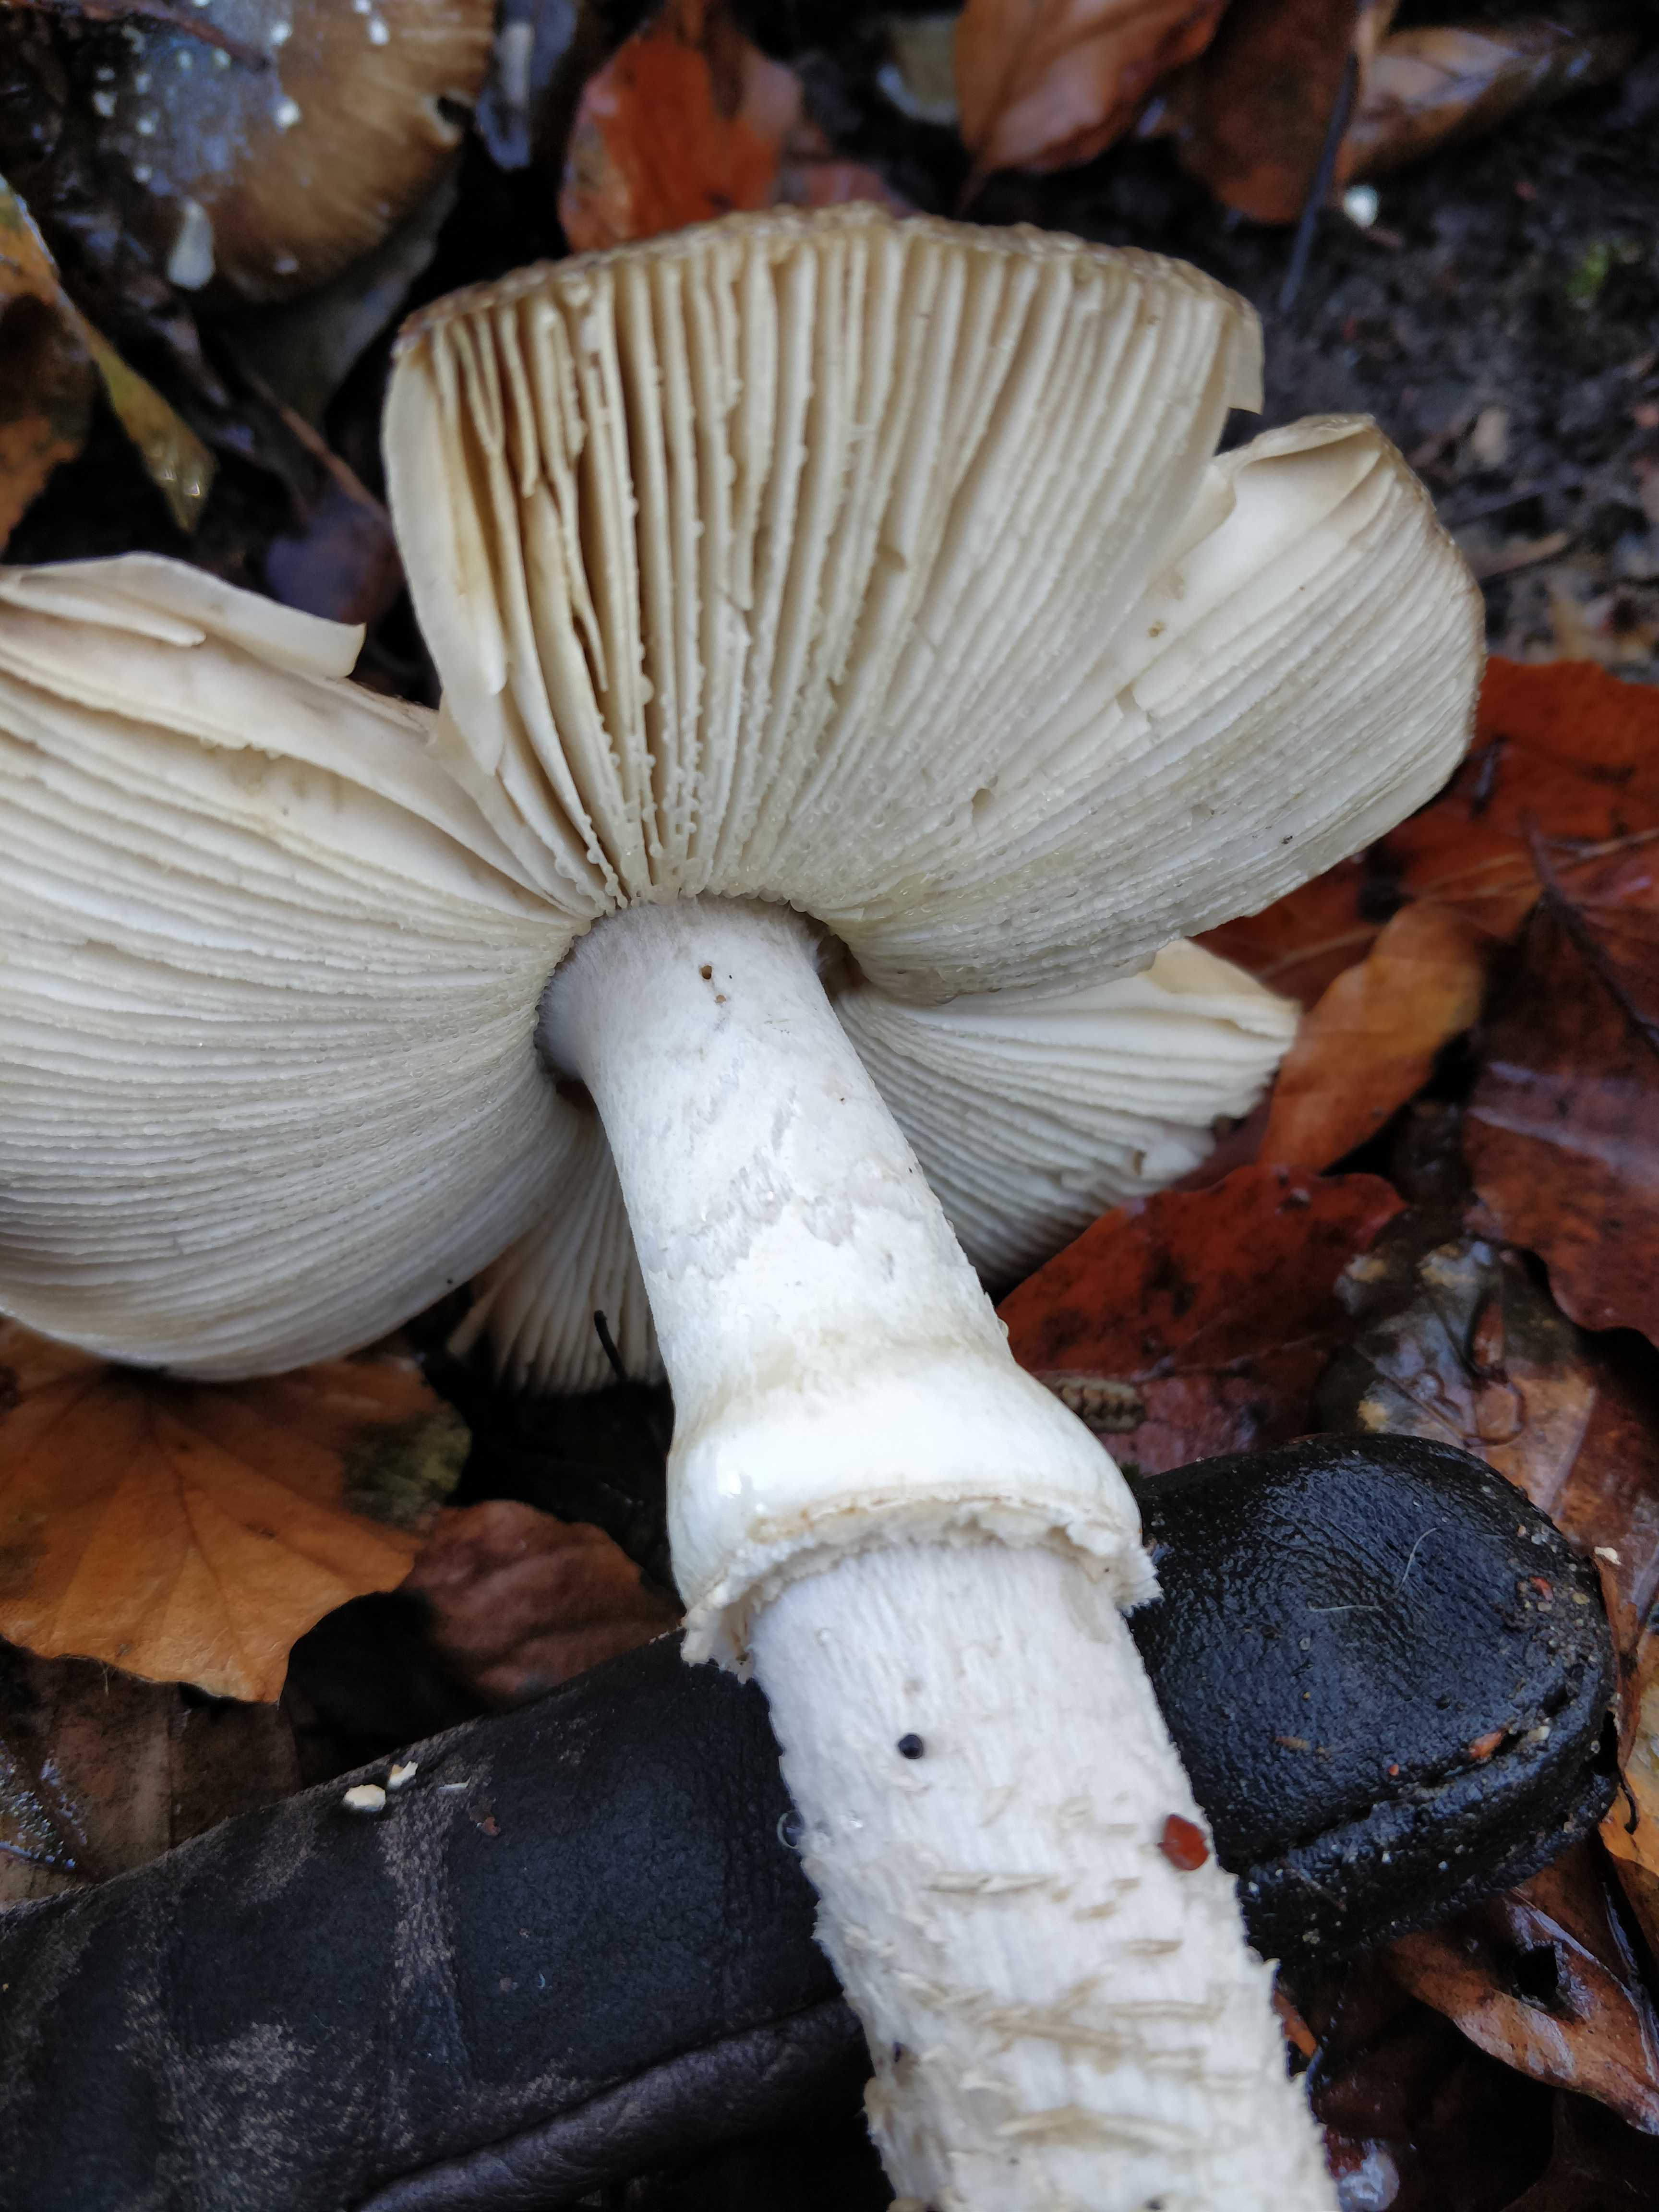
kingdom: Fungi
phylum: Basidiomycota
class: Agaricomycetes
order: Agaricales
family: Amanitaceae
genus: Amanita
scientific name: Amanita pantherina
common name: panter-fluesvamp
